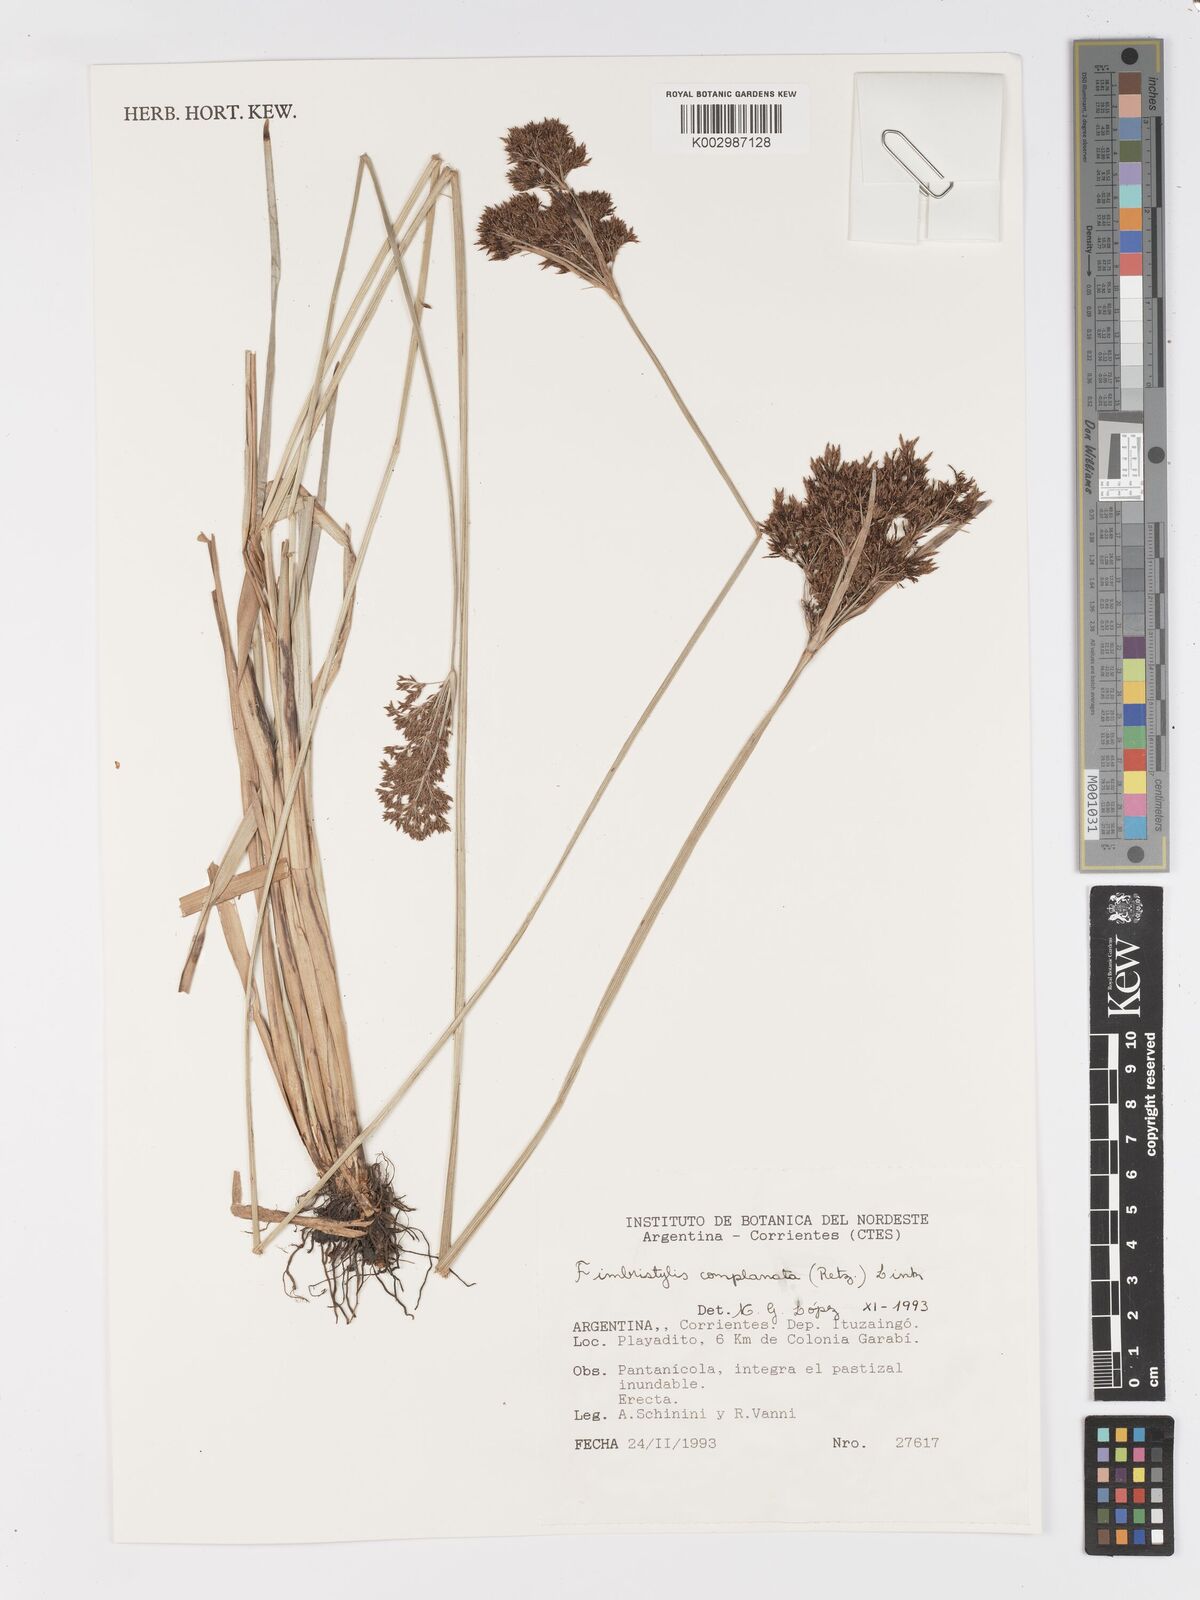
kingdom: Plantae
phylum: Tracheophyta
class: Liliopsida
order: Poales
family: Cyperaceae
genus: Fimbristylis
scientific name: Fimbristylis complanata
